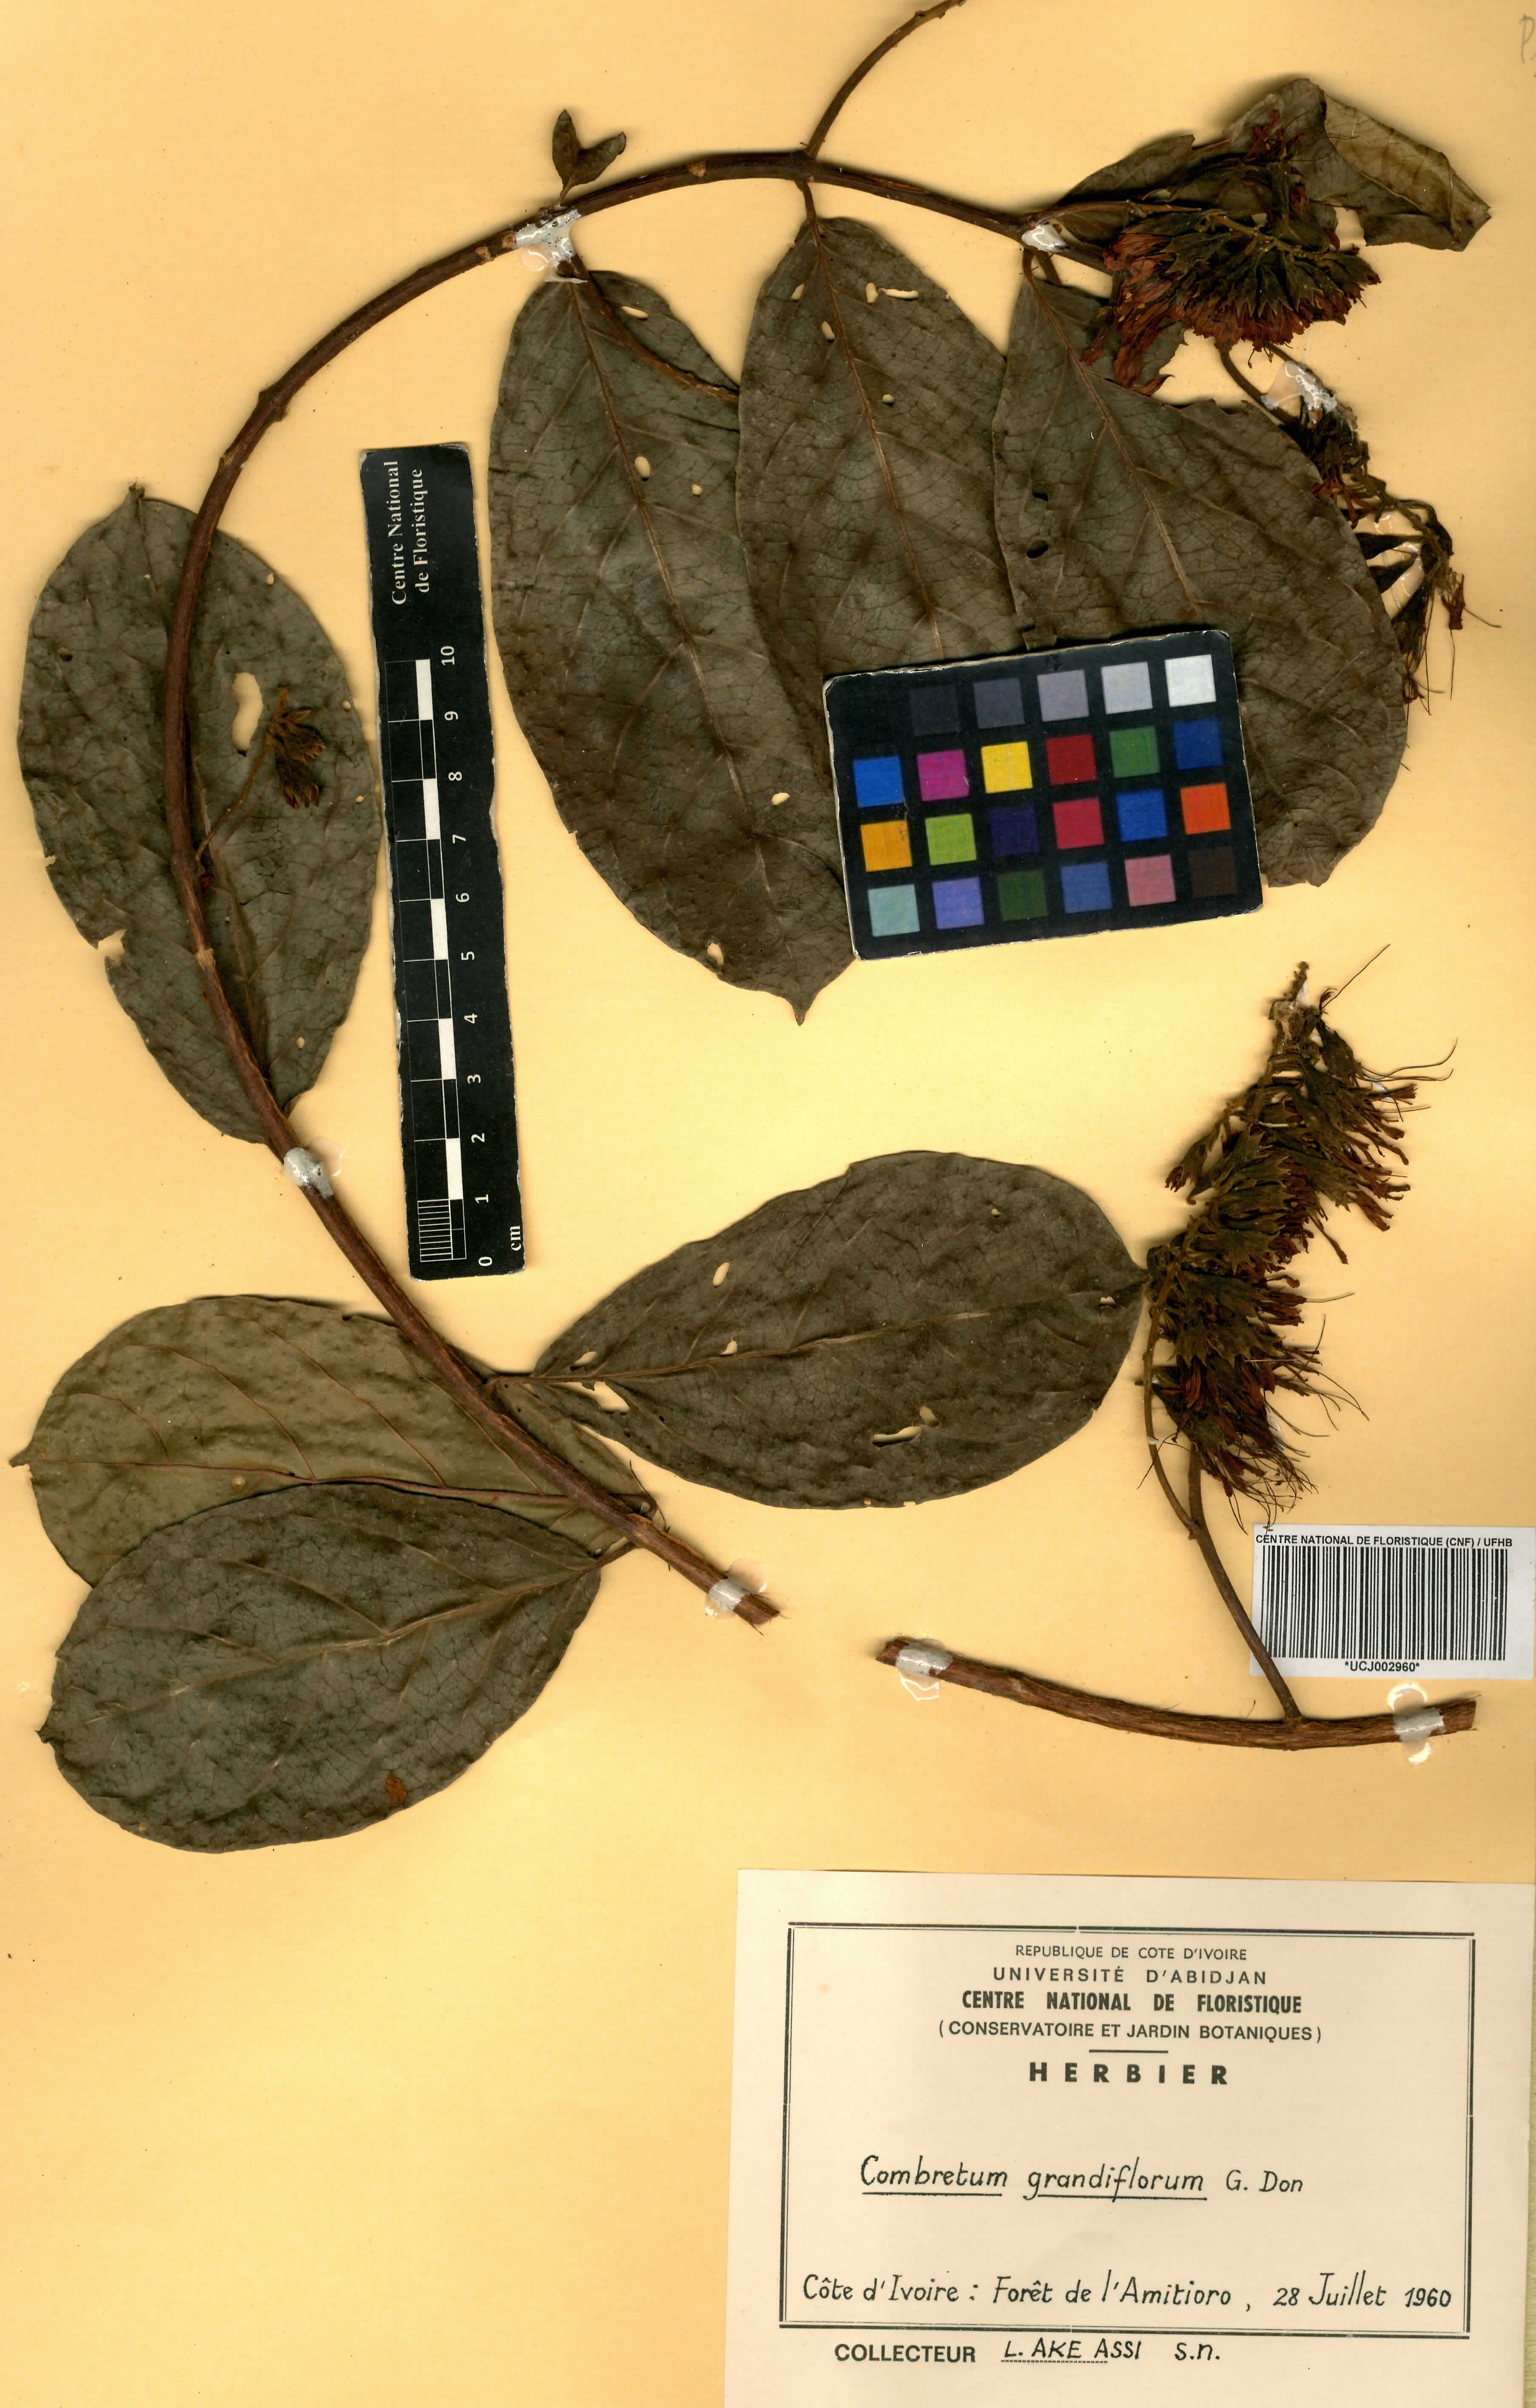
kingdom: Plantae
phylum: Tracheophyta
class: Magnoliopsida
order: Myrtales
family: Combretaceae
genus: Combretum
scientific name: Combretum grandiflorum
